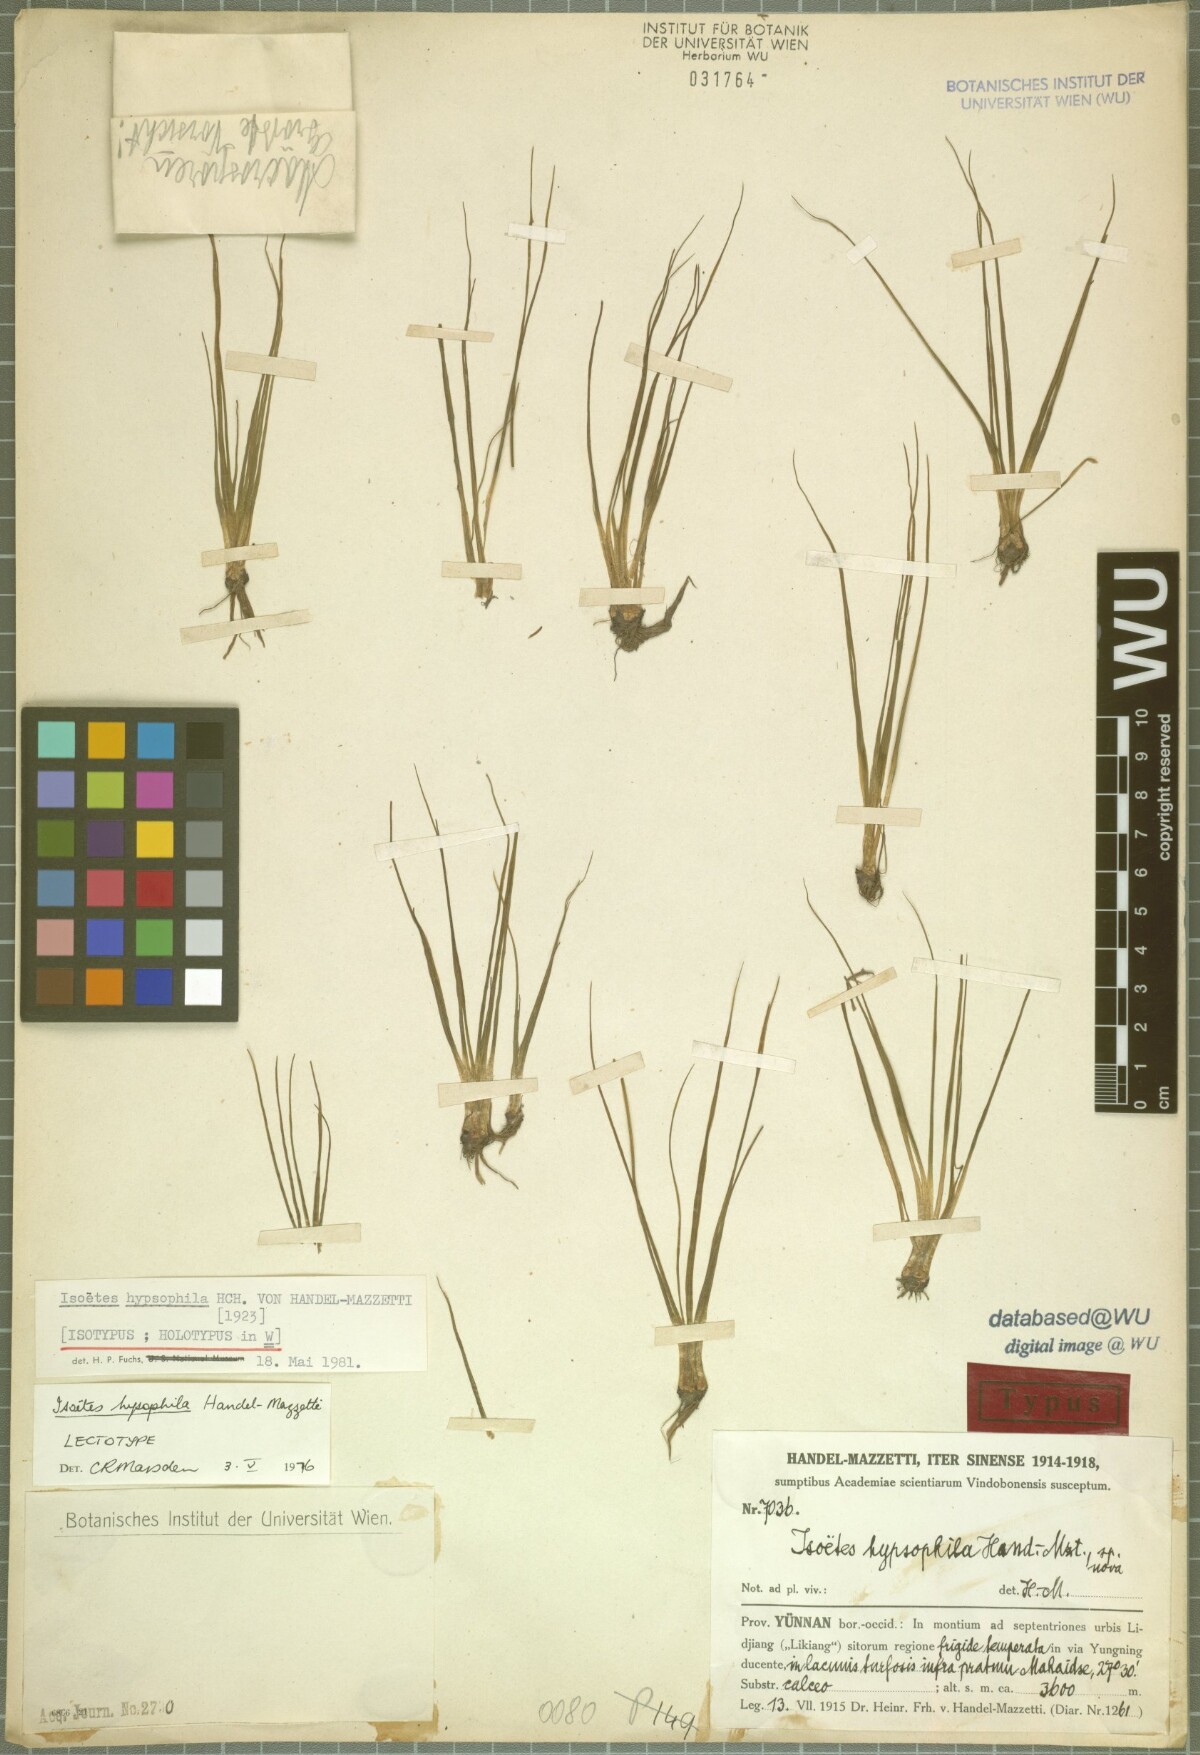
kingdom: Plantae
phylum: Tracheophyta
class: Lycopodiopsida
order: Isoetales
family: Isoetaceae
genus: Isoetes
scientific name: Isoetes hypsophila
